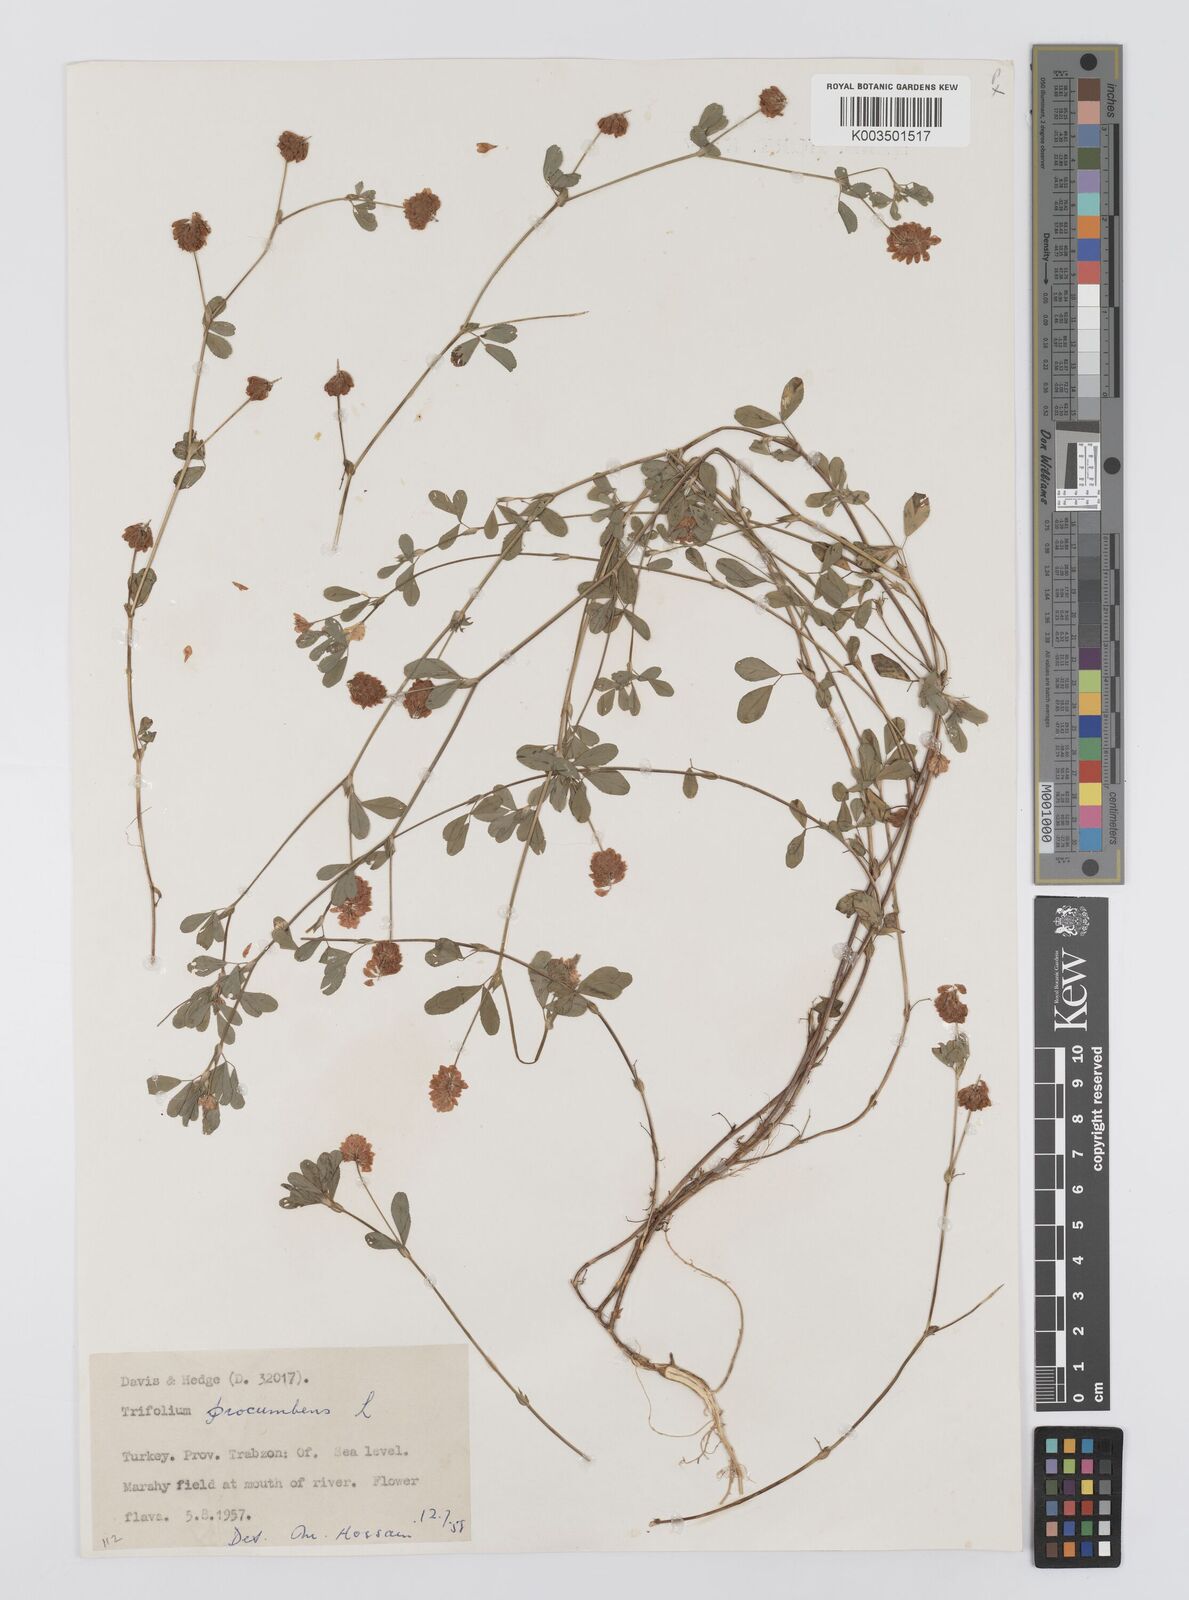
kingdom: Plantae
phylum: Tracheophyta
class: Magnoliopsida
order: Fabales
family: Fabaceae
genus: Trifolium
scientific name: Trifolium campestre
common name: Field clover
